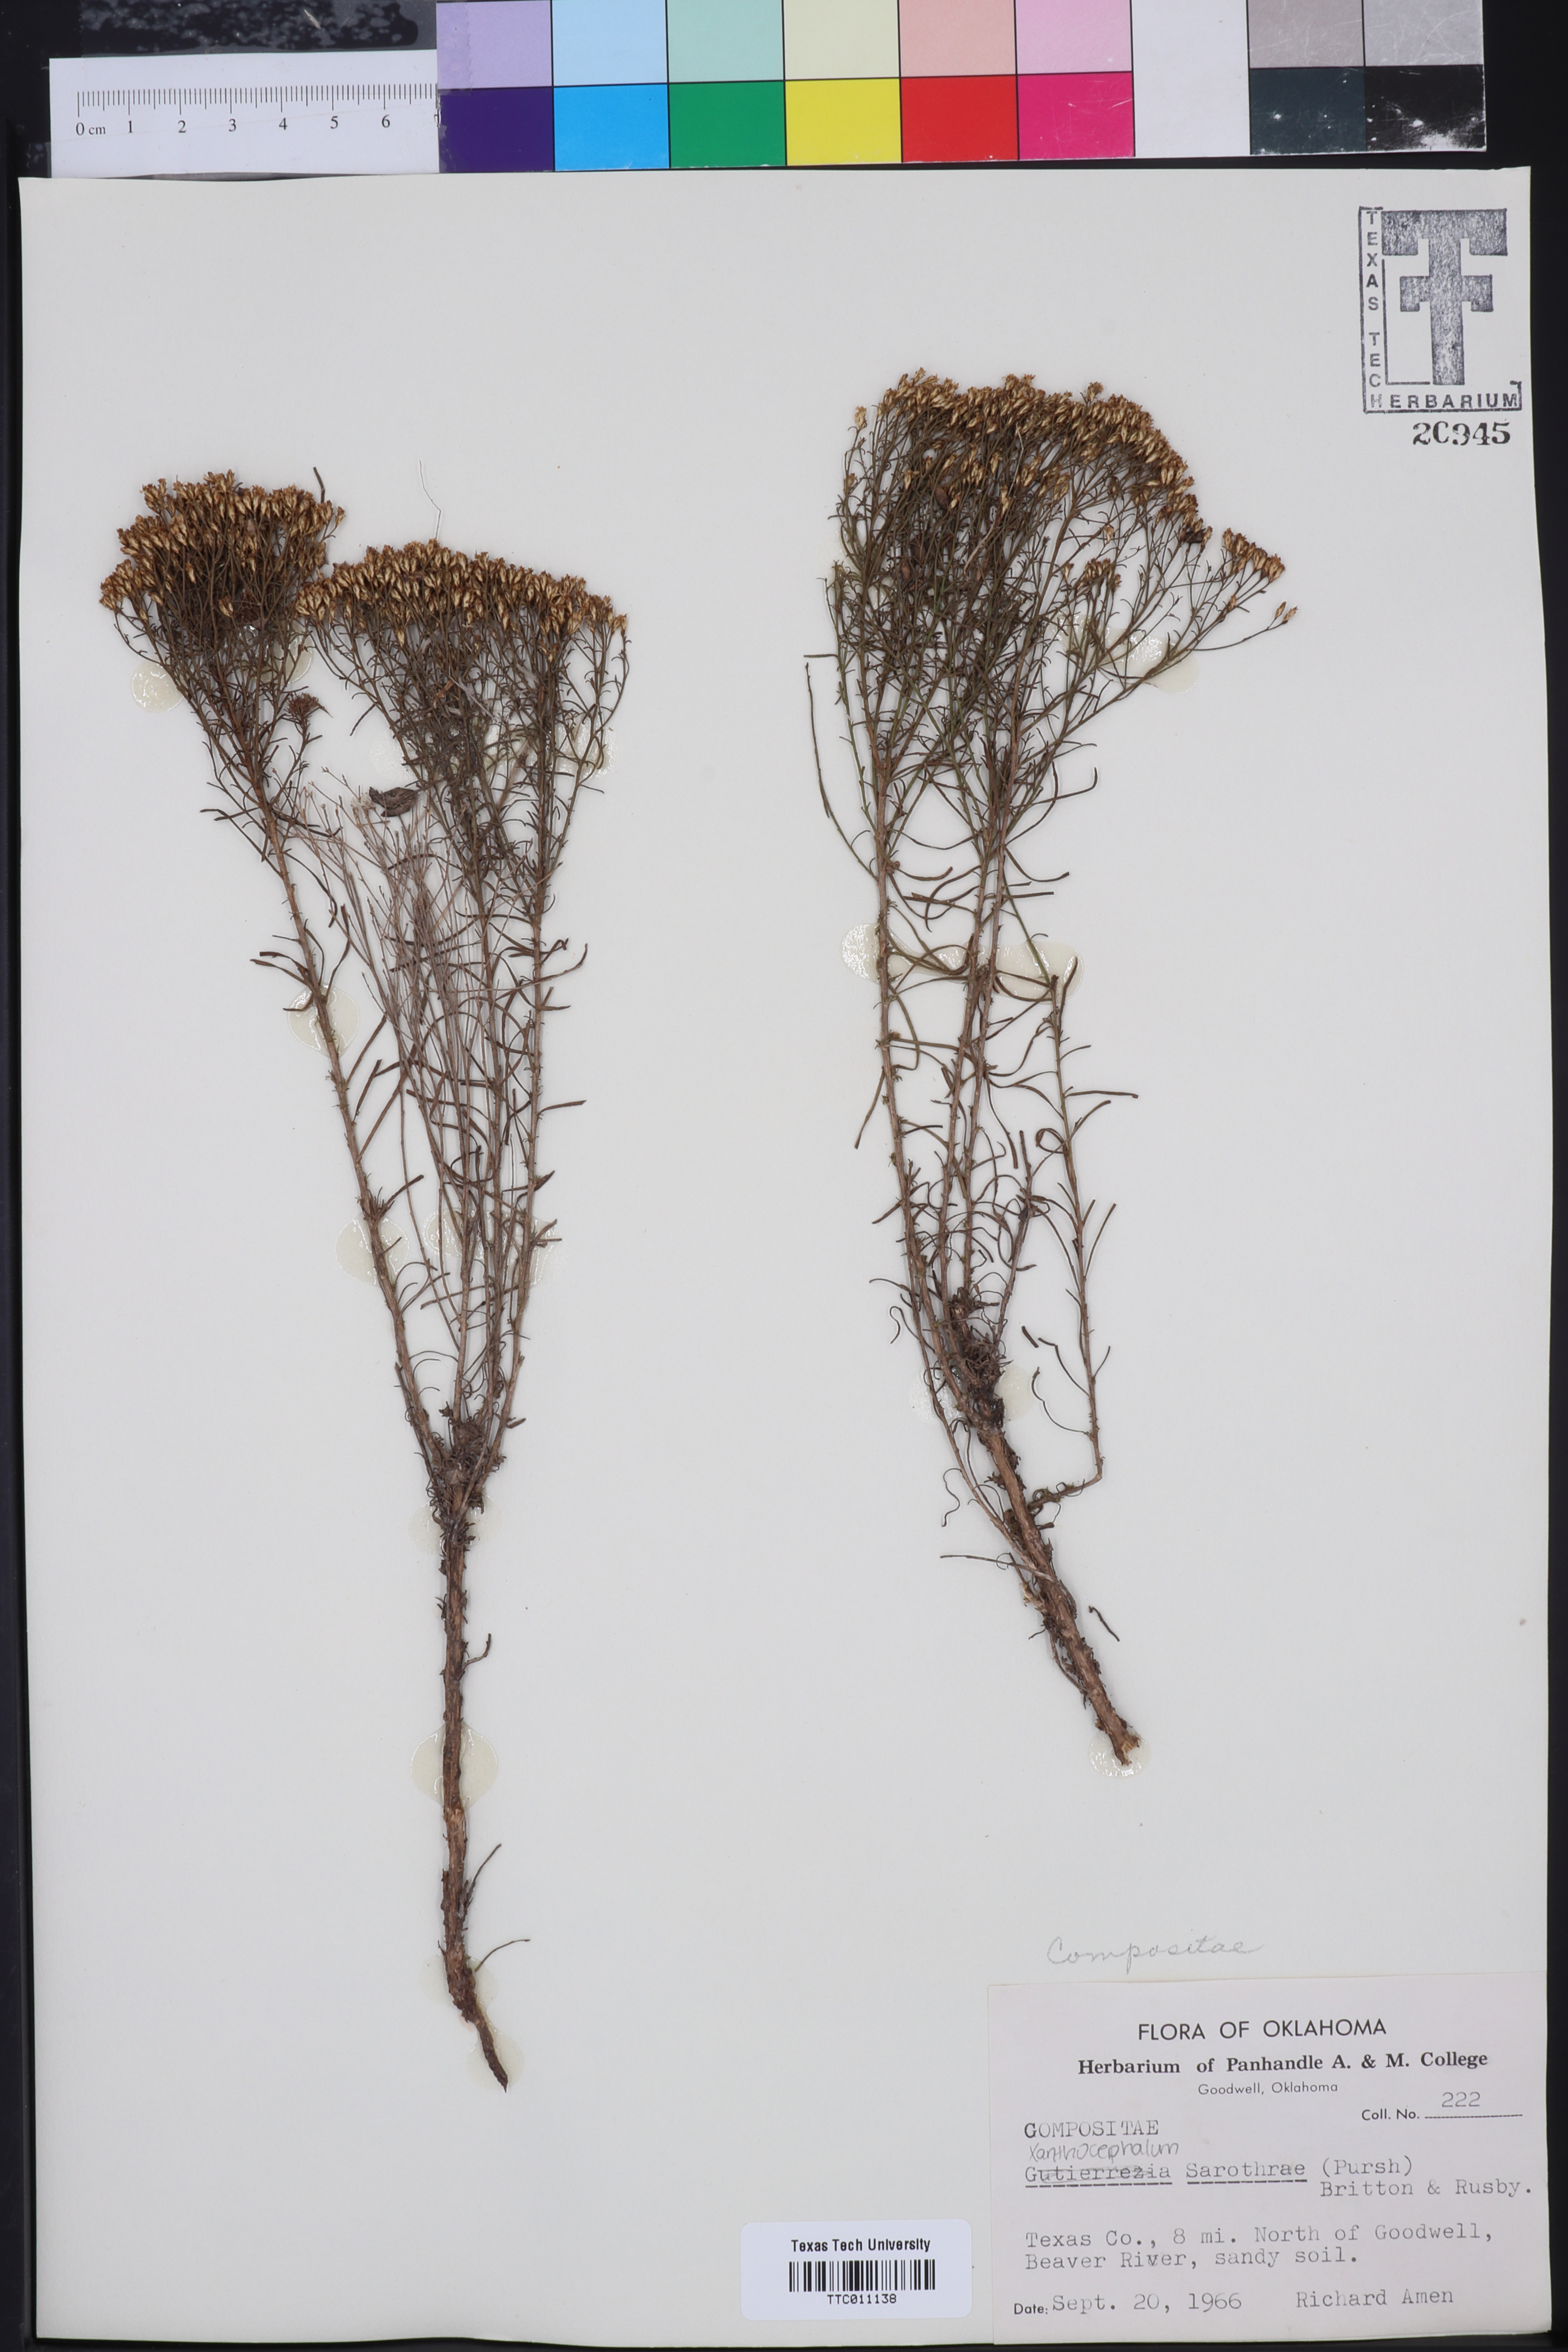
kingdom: Plantae
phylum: Tracheophyta
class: Magnoliopsida
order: Asterales
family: Asteraceae
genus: Gutierrezia
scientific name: Gutierrezia sarothrae
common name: Broom snakeweed
